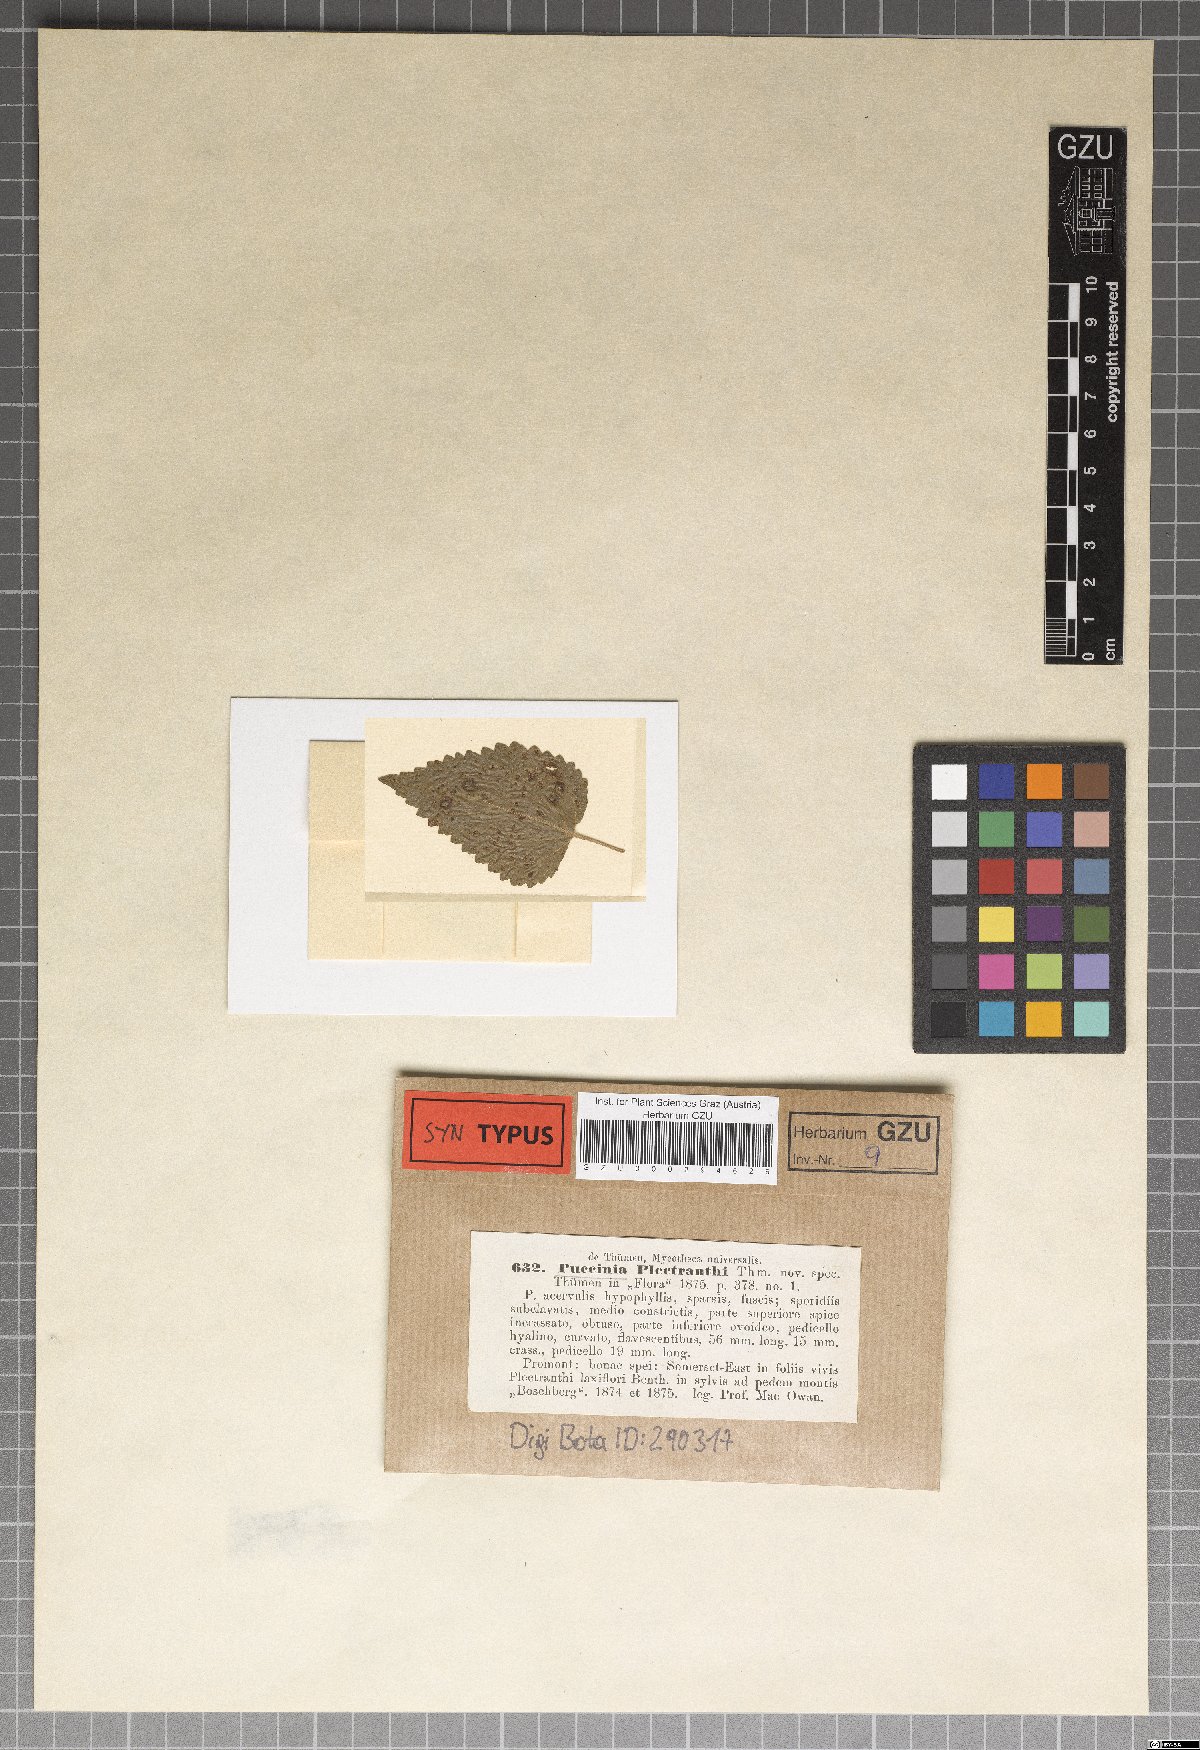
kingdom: Fungi
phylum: Basidiomycota
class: Pucciniomycetes
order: Pucciniales
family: Pucciniaceae
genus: Puccinia
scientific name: Puccinia plectranthi
